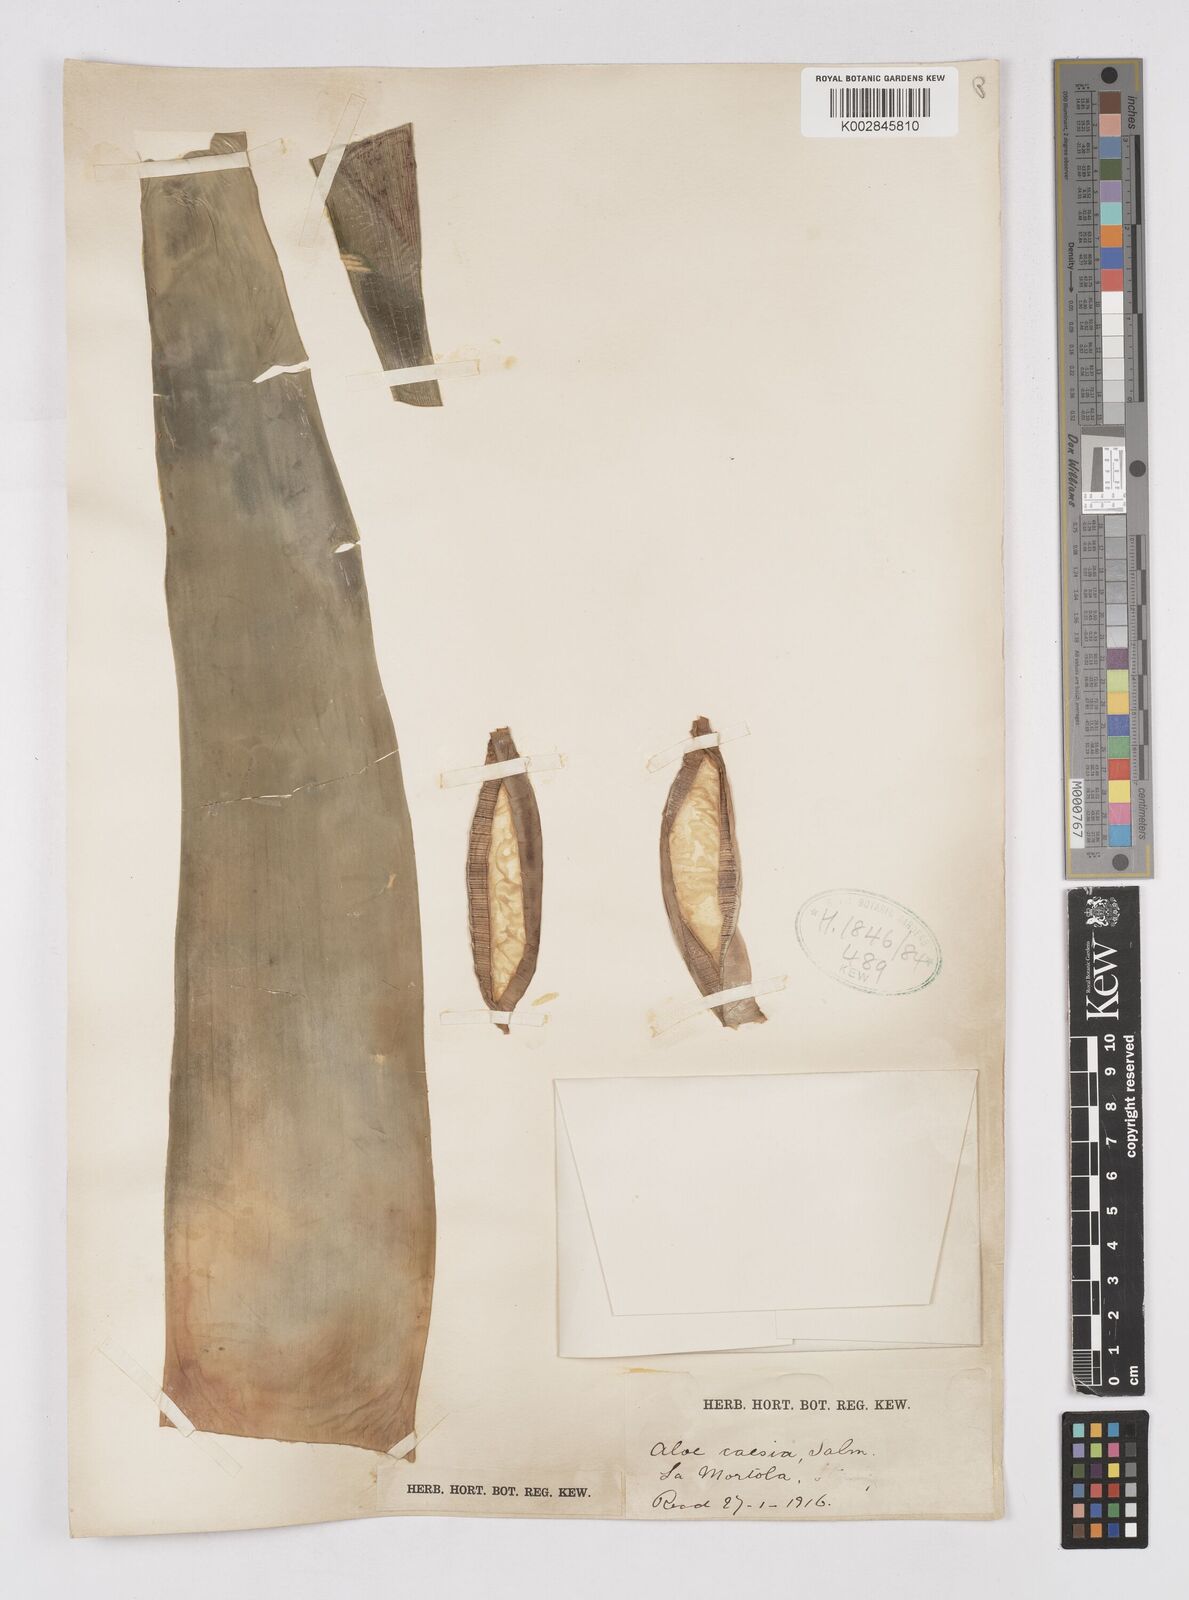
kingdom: Plantae
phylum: Tracheophyta
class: Liliopsida
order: Asparagales
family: Asphodelaceae
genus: Aloe
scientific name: Aloe caesia
